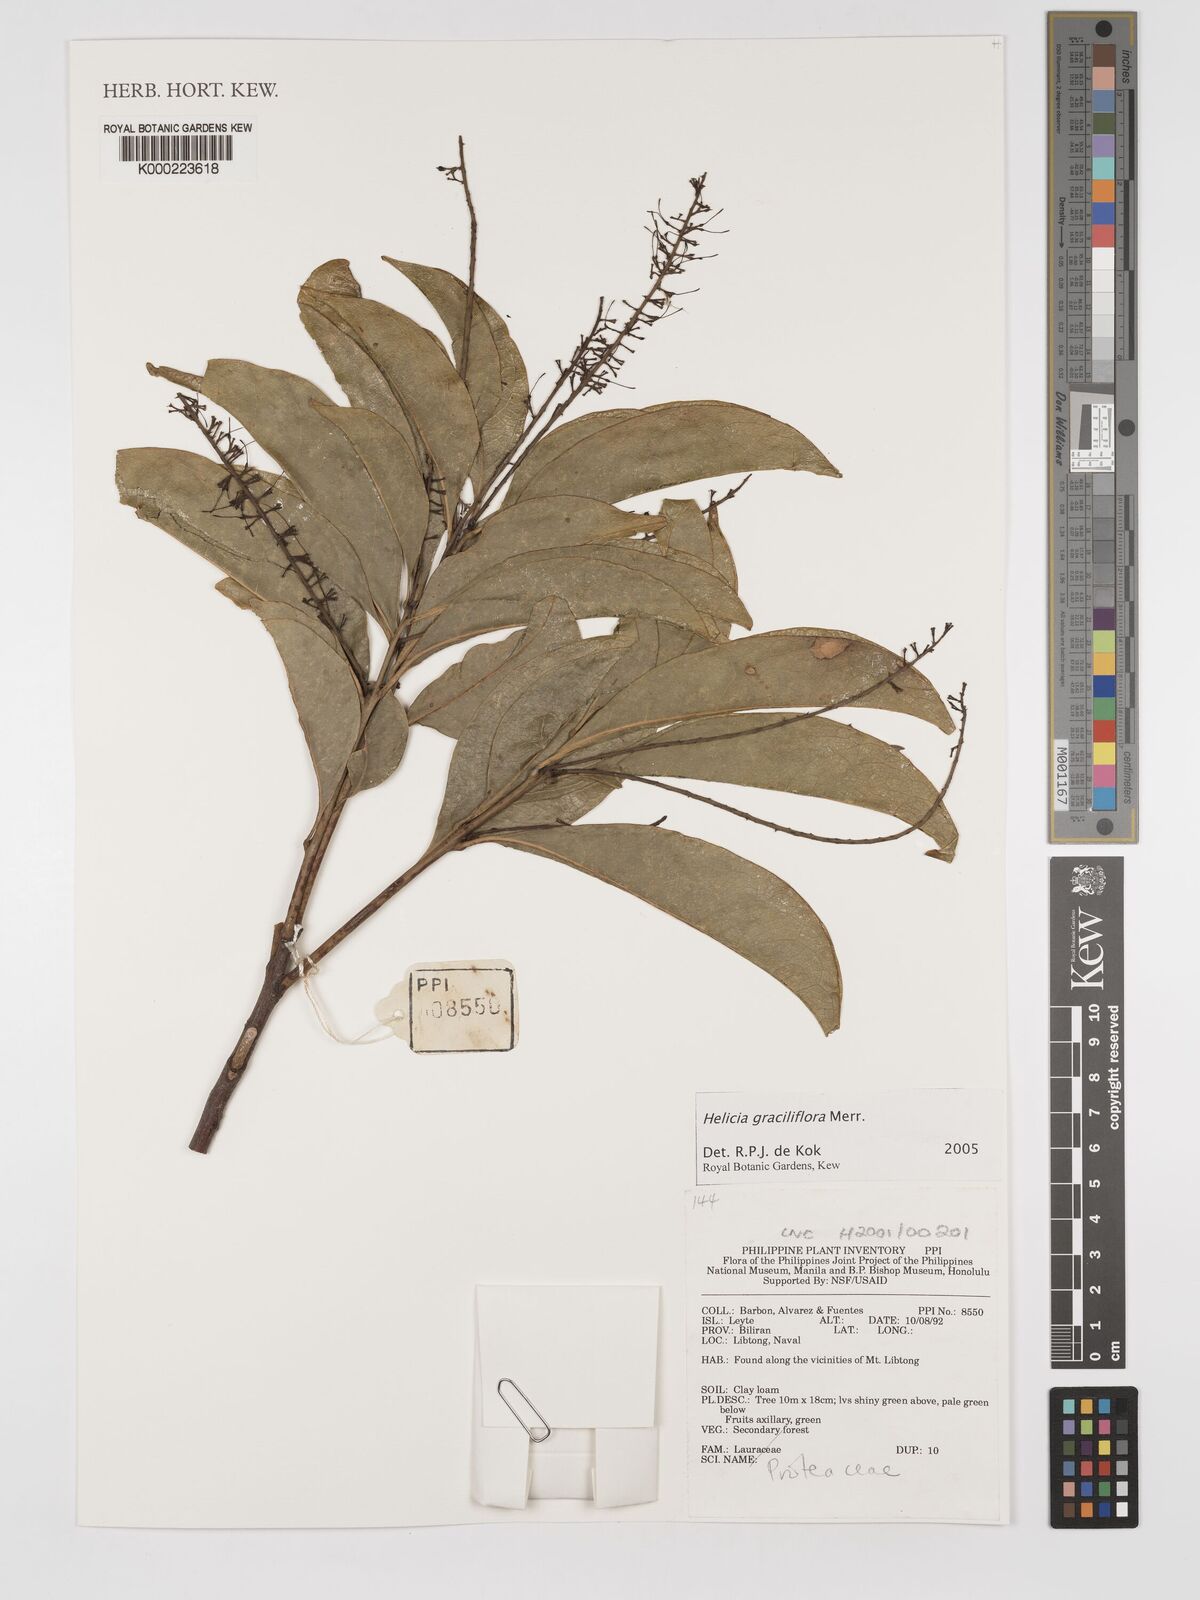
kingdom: Plantae
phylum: Tracheophyta
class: Magnoliopsida
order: Proteales
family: Proteaceae
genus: Helicia
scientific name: Helicia graciliflora
